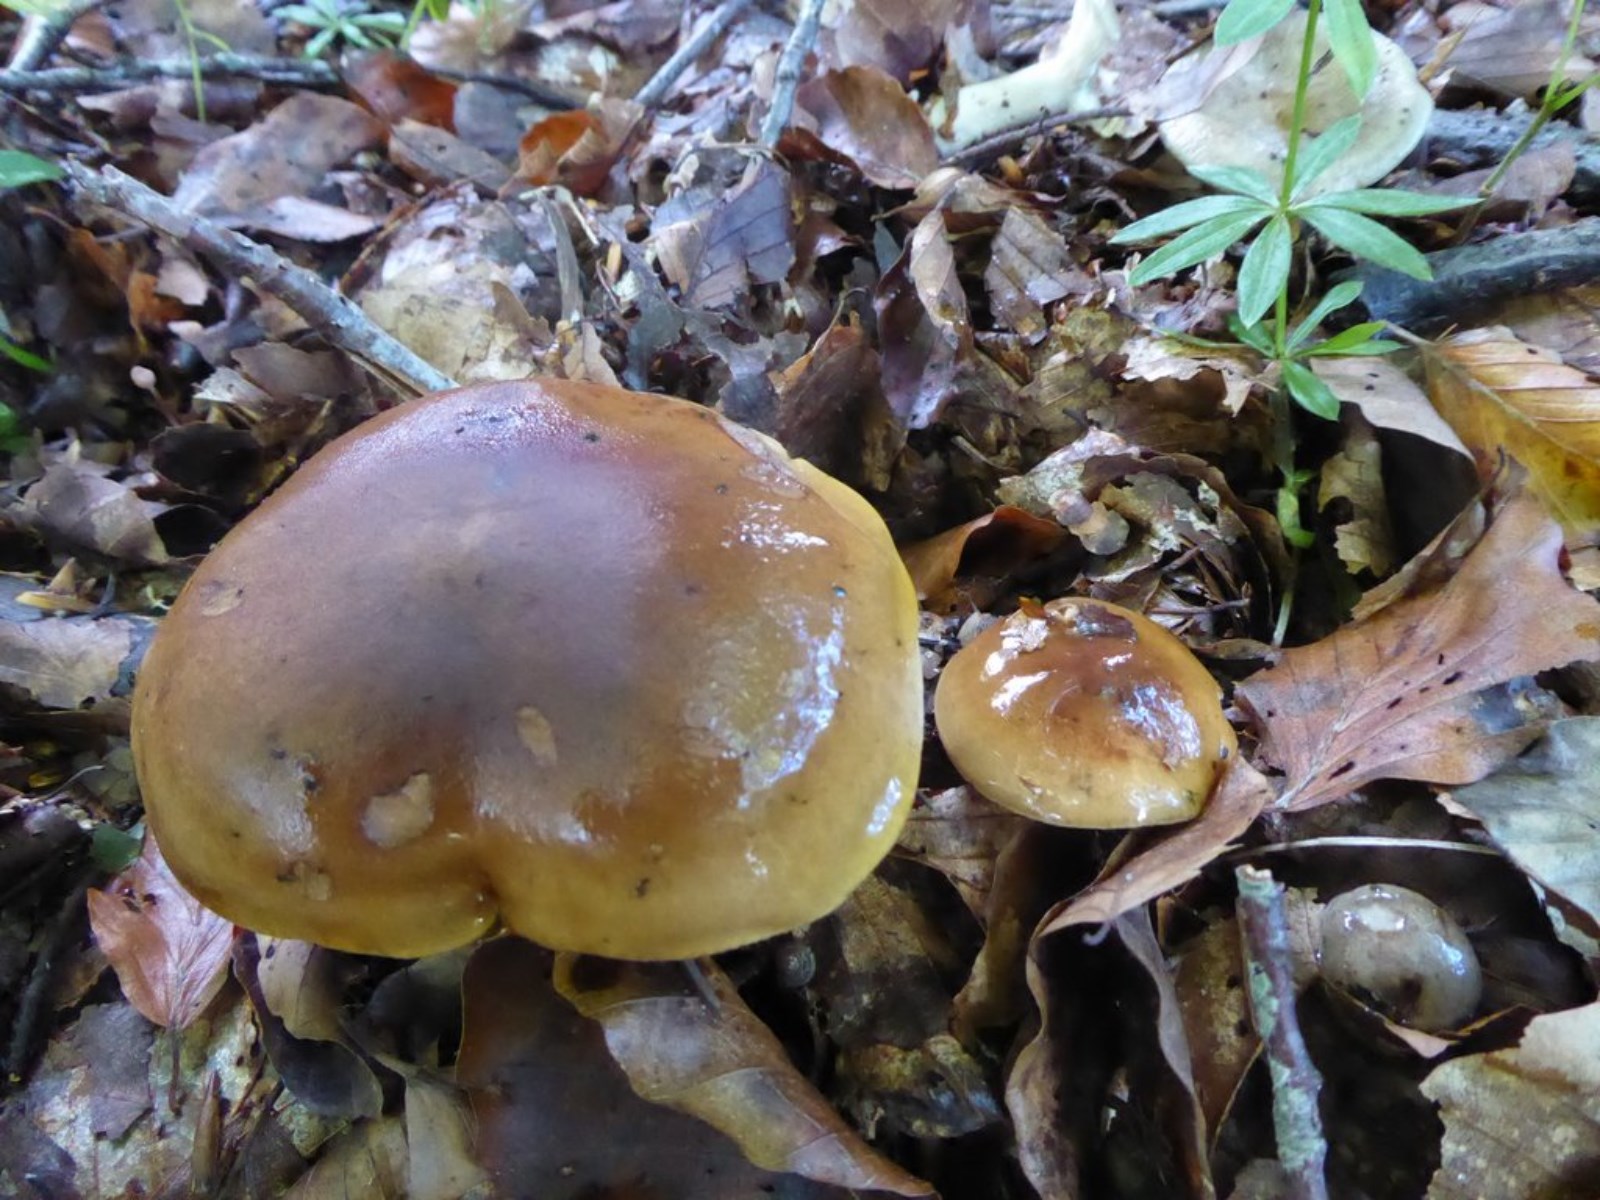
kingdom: Fungi
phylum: Basidiomycota
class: Agaricomycetes
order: Agaricales
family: Tricholomataceae
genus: Tricholoma
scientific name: Tricholoma ustale
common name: sveden ridderhat
